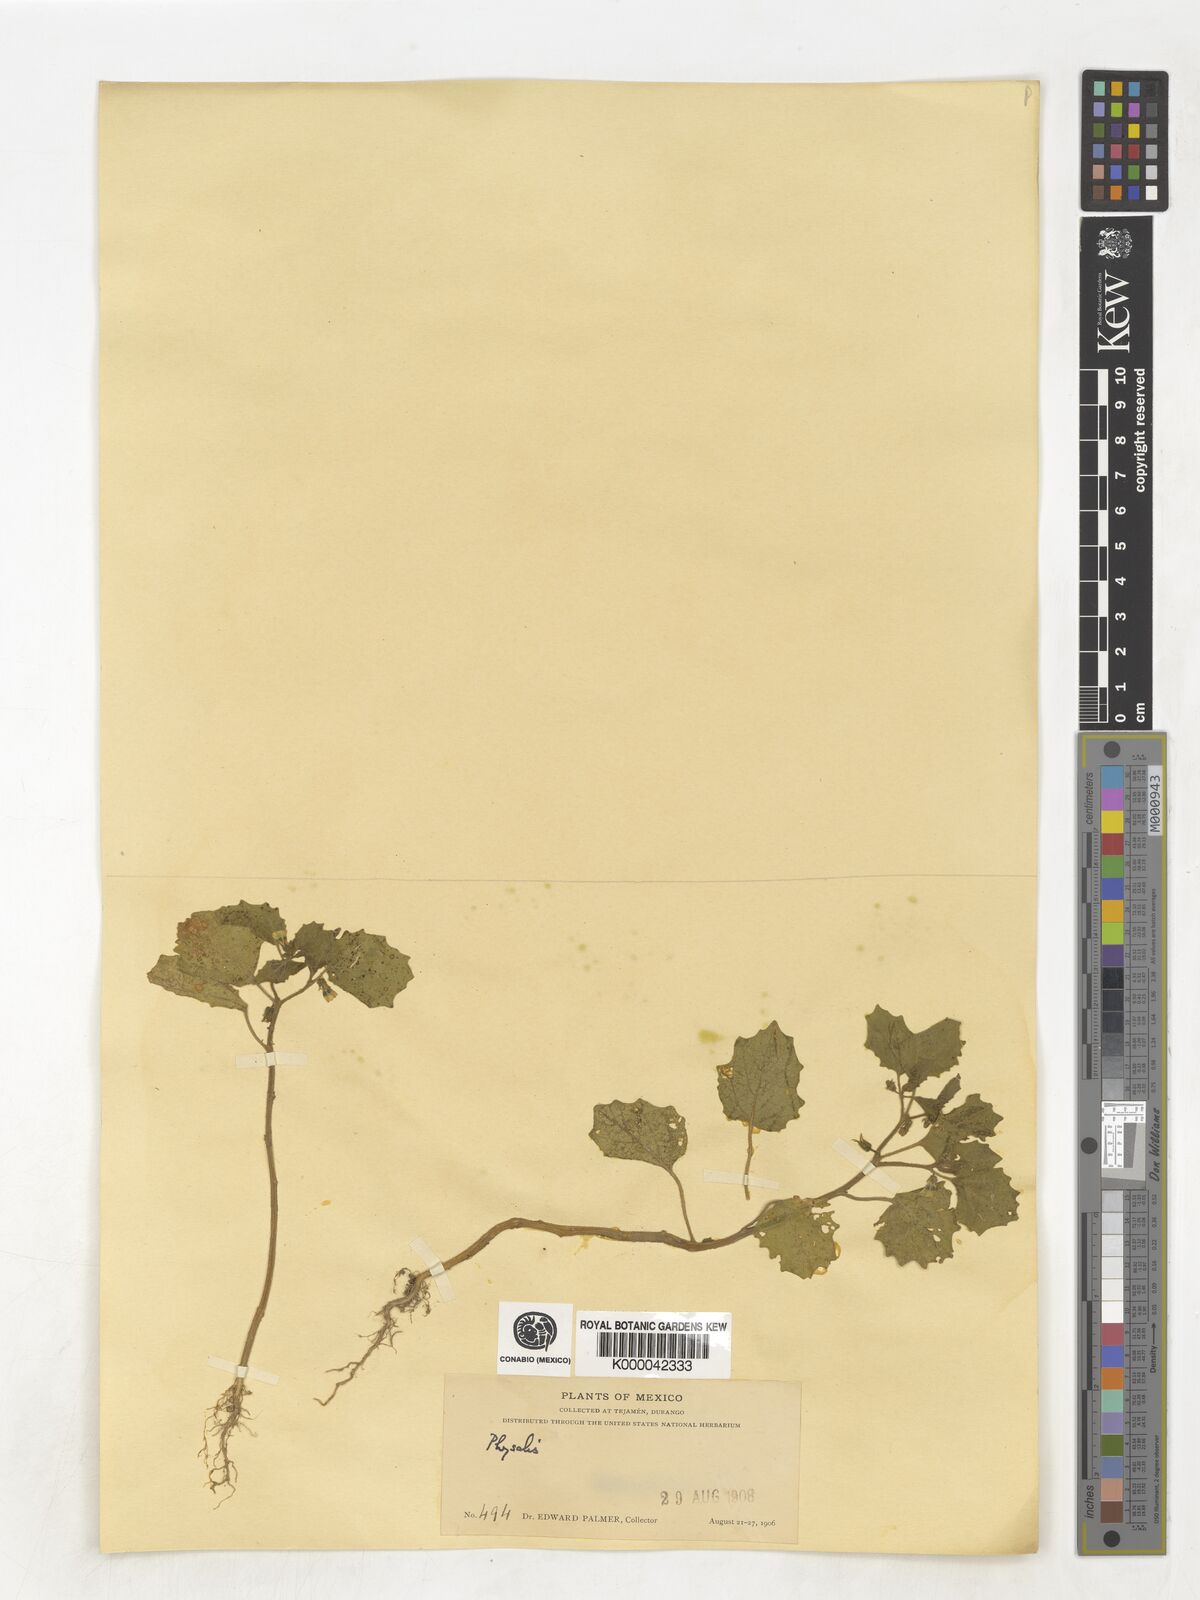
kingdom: Plantae
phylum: Tracheophyta
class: Magnoliopsida
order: Solanales
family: Solanaceae
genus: Physalis
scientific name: Physalis
